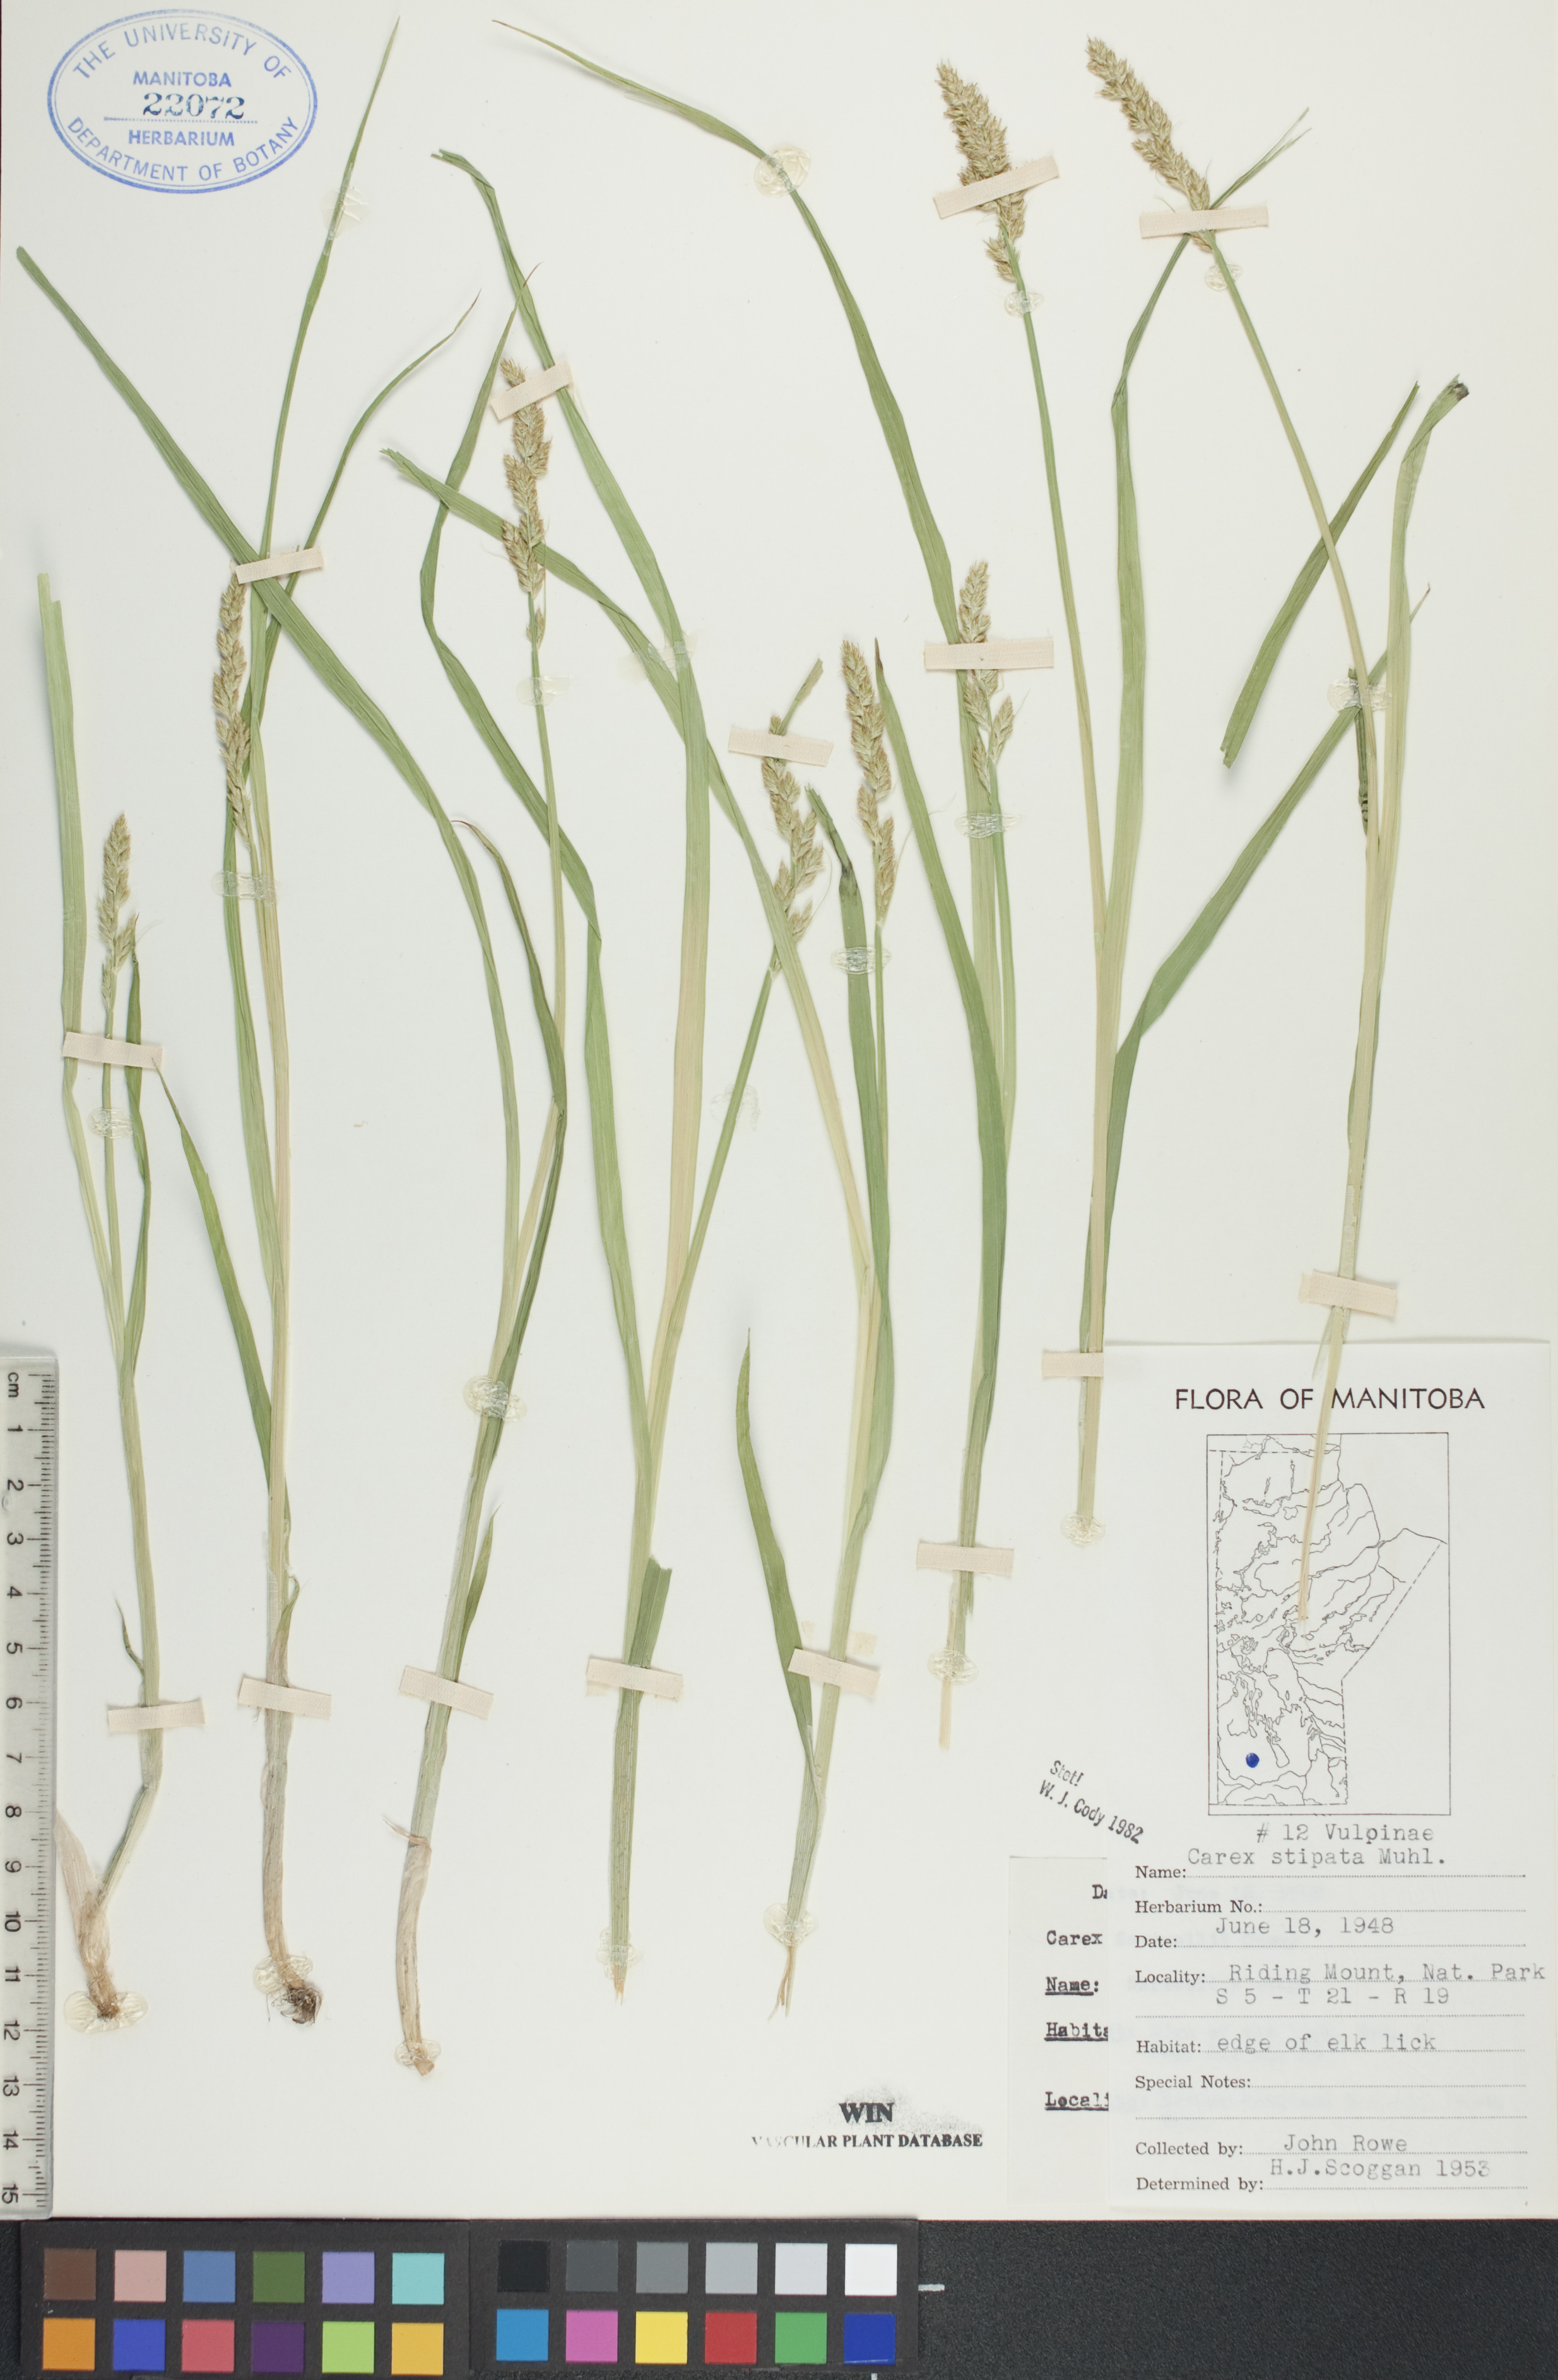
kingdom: Plantae
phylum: Tracheophyta
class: Liliopsida
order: Poales
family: Cyperaceae
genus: Carex
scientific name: Carex stipata
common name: Awl-fruited sedge
